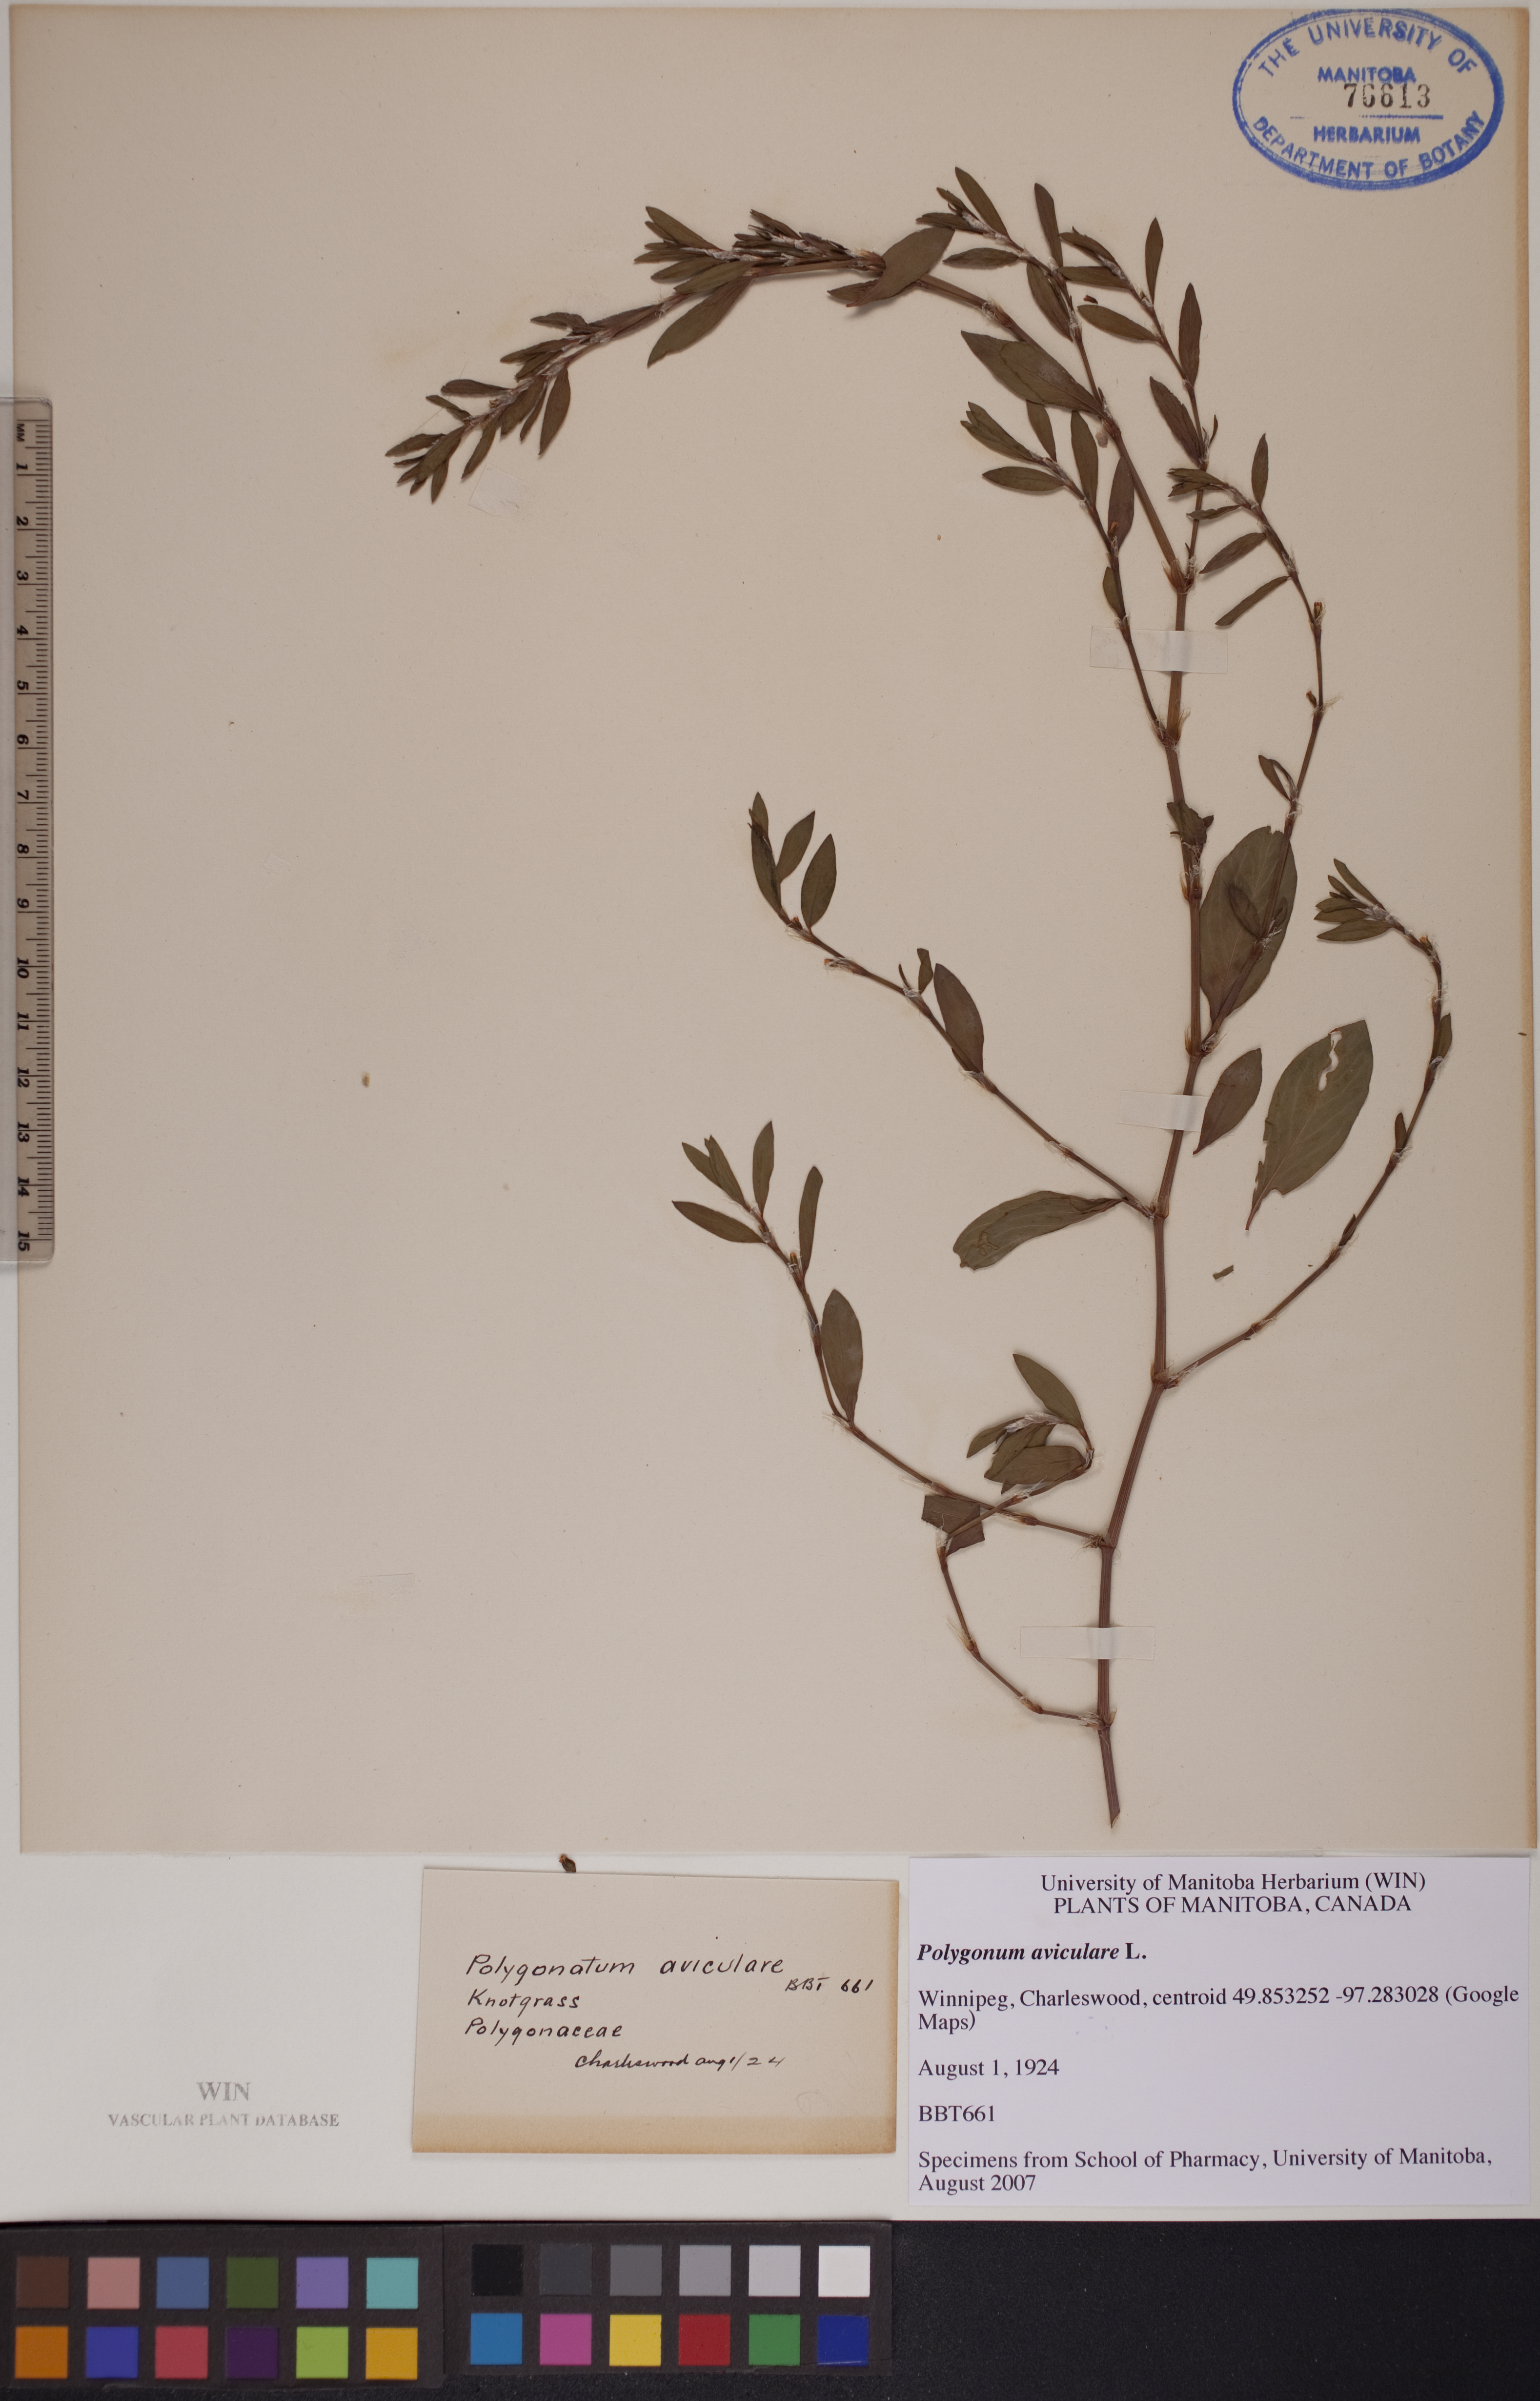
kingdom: Plantae
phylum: Tracheophyta
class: Magnoliopsida
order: Caryophyllales
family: Polygonaceae
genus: Polygonum
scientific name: Polygonum aviculare
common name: Prostrate knotweed
